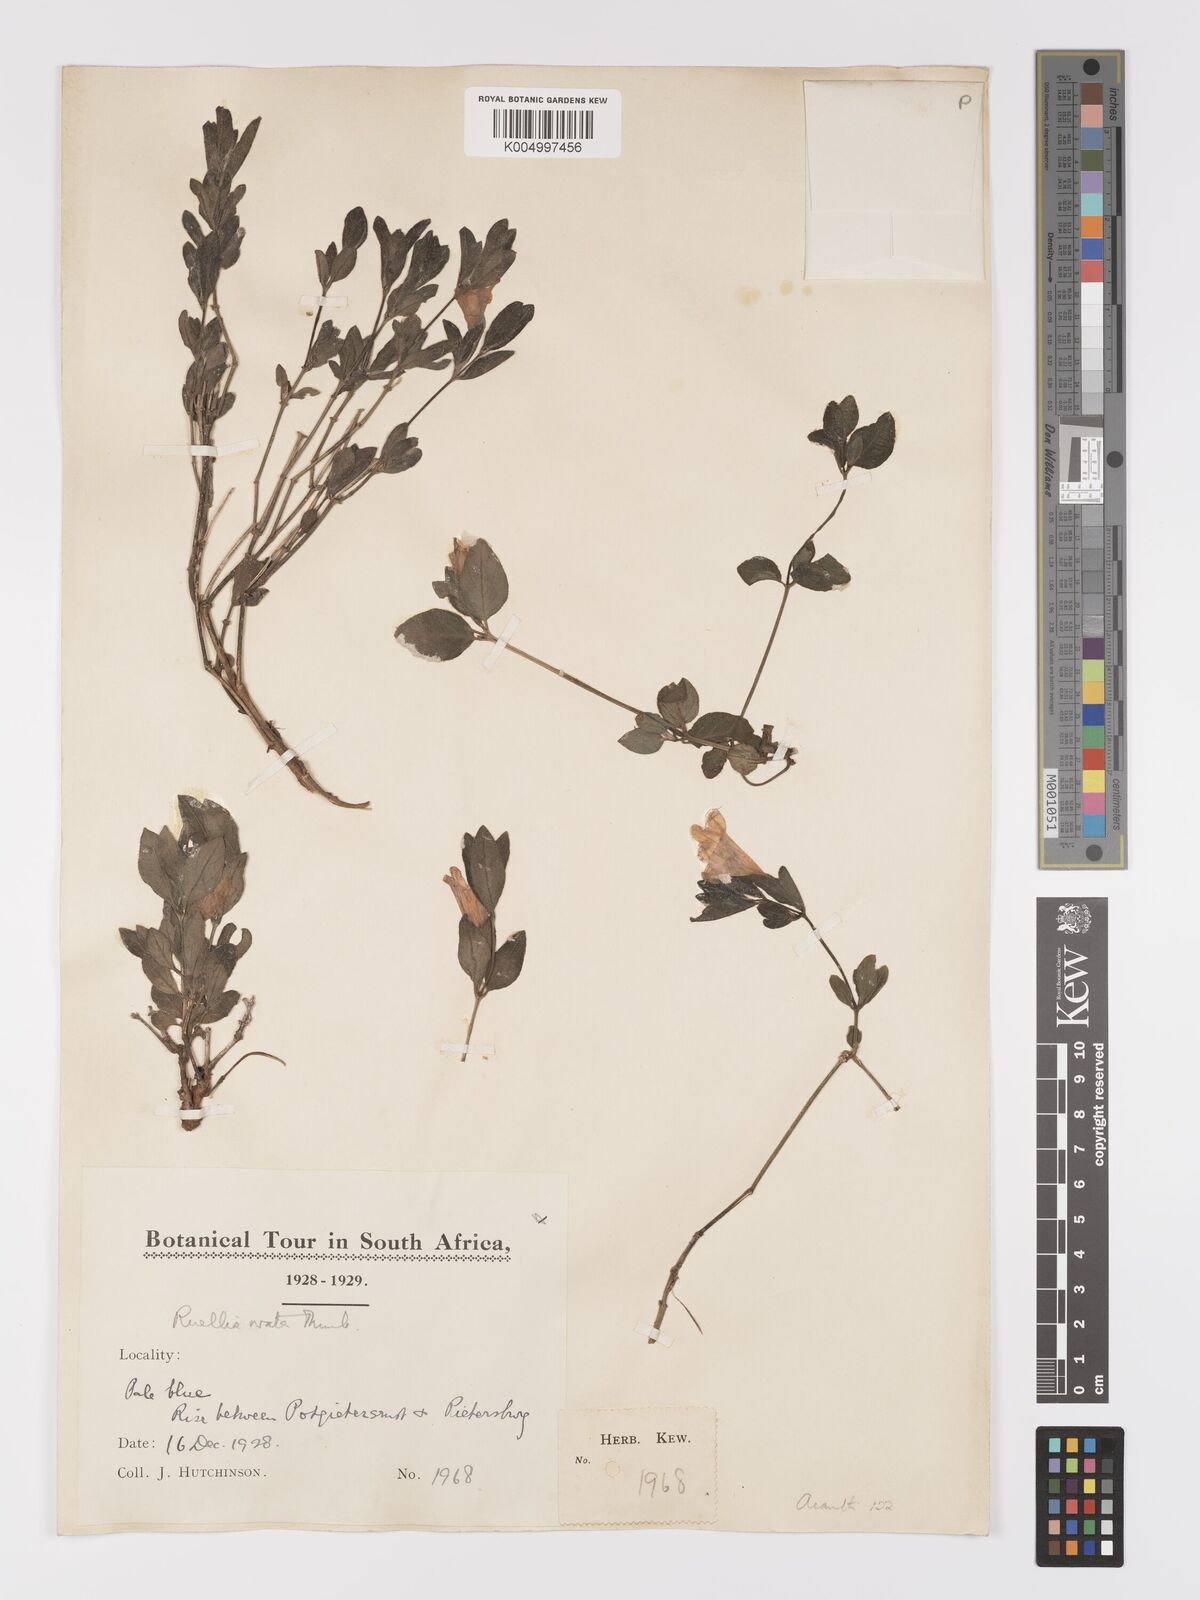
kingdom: Plantae
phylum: Tracheophyta
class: Magnoliopsida
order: Lamiales
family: Acanthaceae
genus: Ruellia
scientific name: Ruellia cordata
